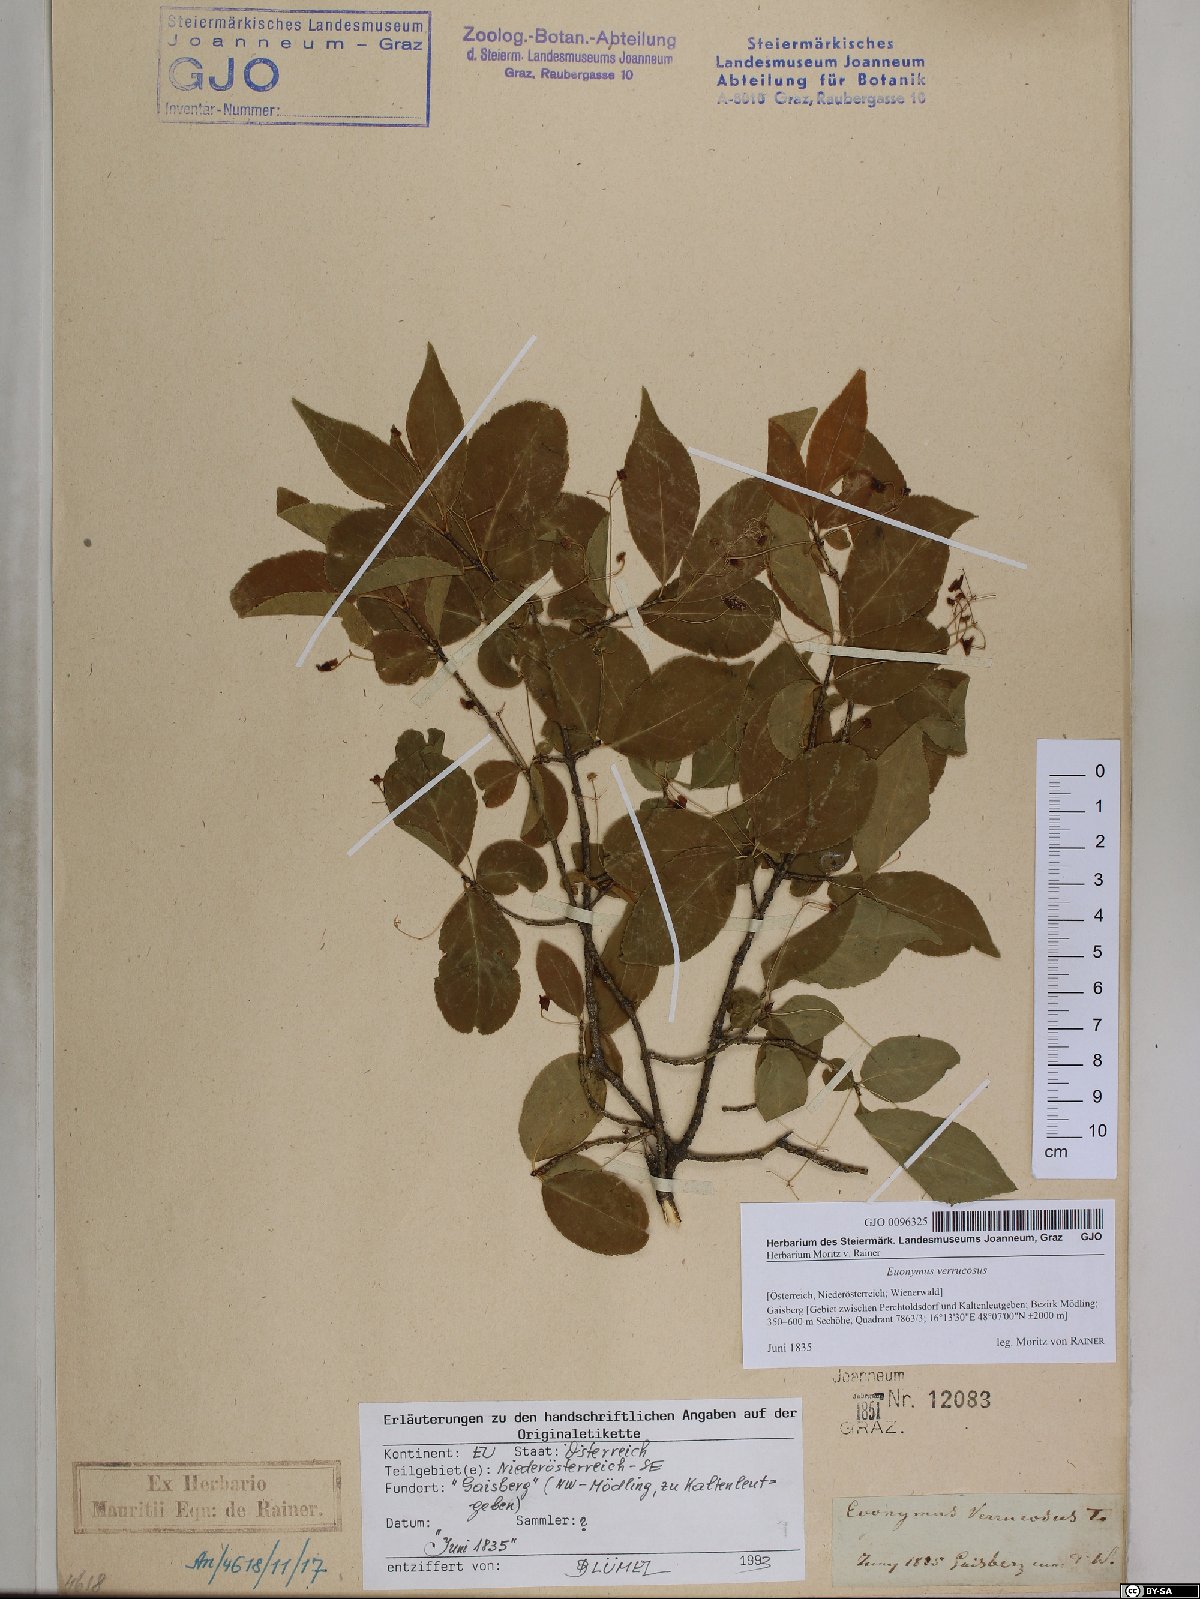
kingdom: Plantae
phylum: Tracheophyta
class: Magnoliopsida
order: Celastrales
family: Celastraceae
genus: Euonymus
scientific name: Euonymus verrucosus
